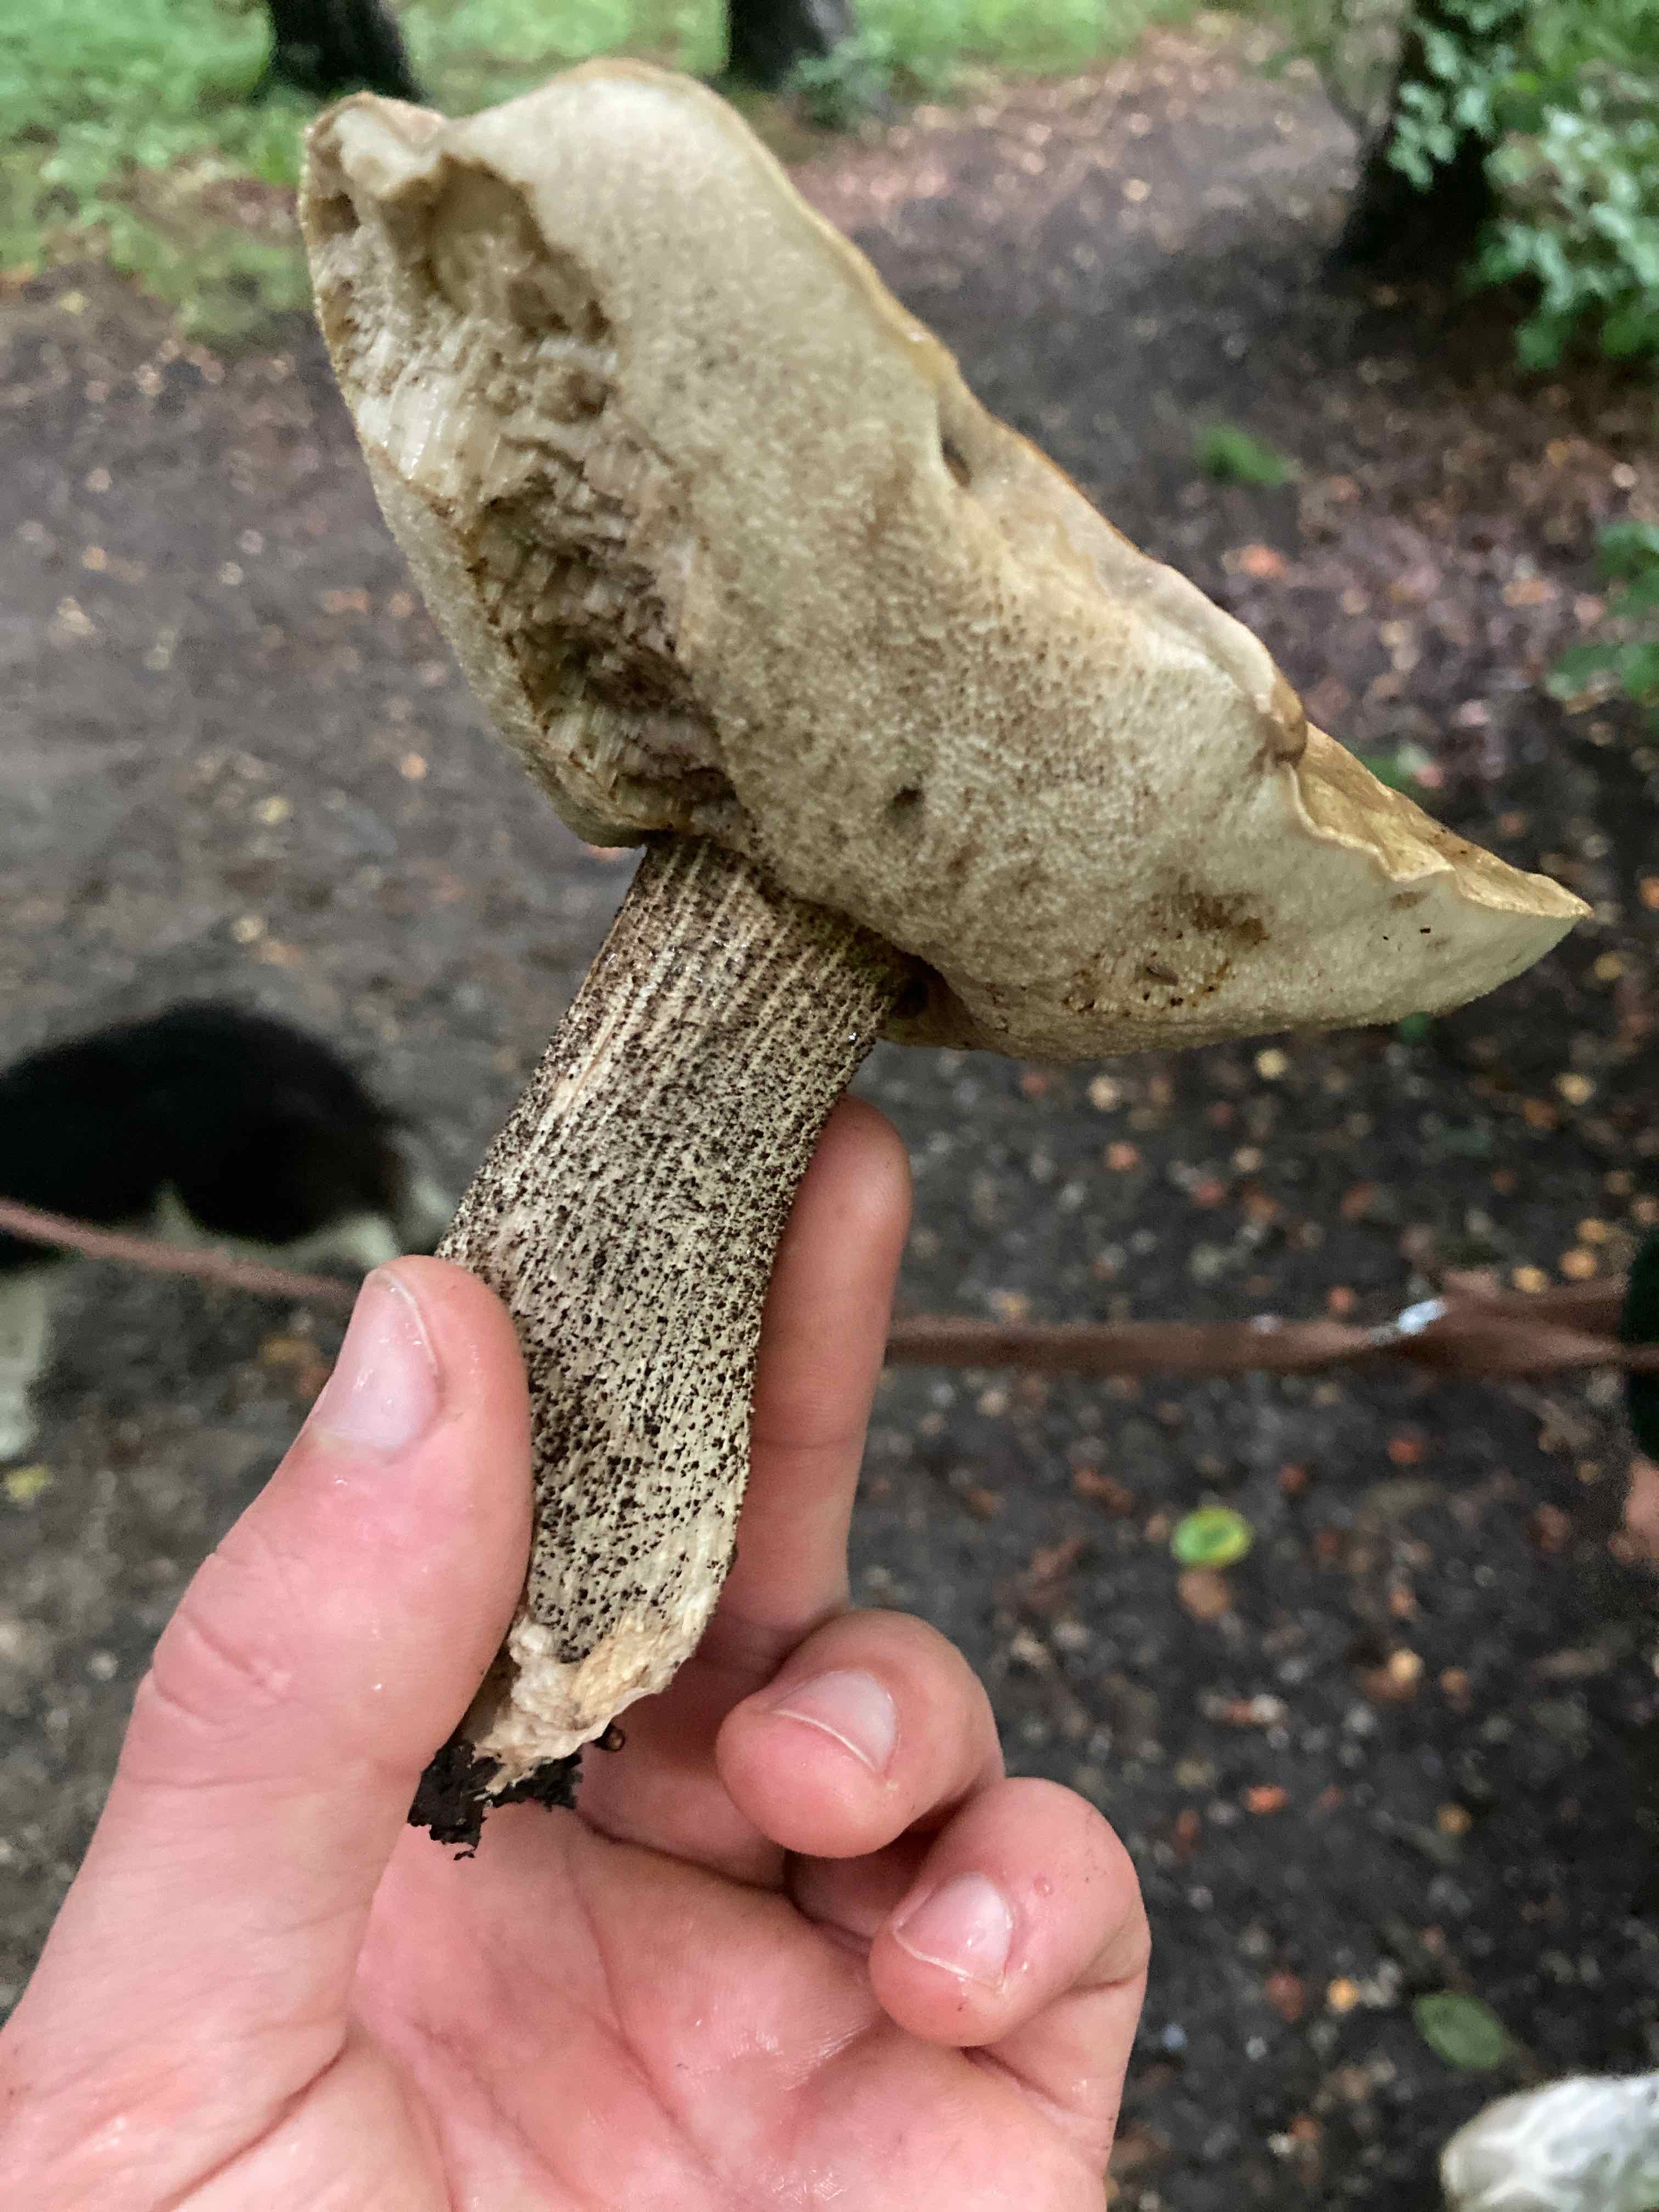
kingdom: Fungi
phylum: Basidiomycota
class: Agaricomycetes
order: Boletales
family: Boletaceae
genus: Leccinum
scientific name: Leccinum scabrum
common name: brun skælrørhat
